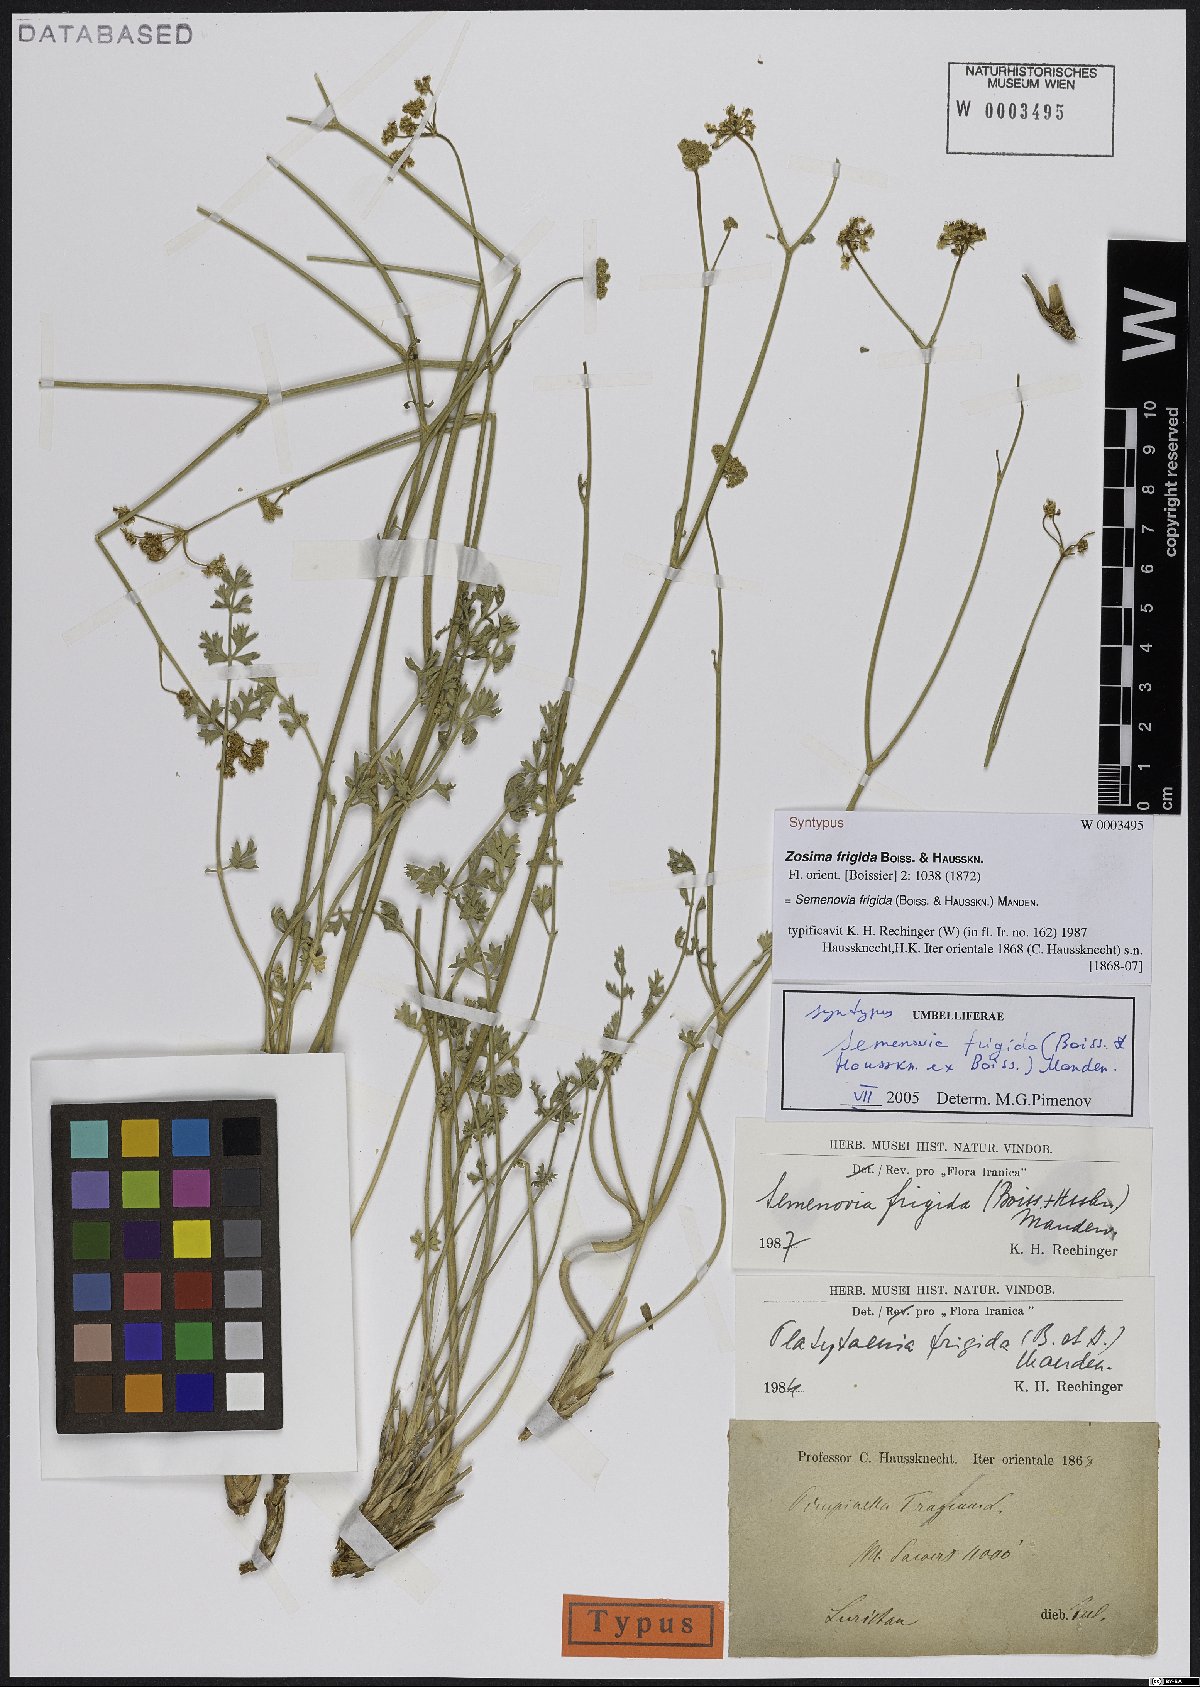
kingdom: Plantae
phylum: Tracheophyta
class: Magnoliopsida
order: Apiales
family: Apiaceae
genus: Semenovia
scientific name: Semenovia frigida
